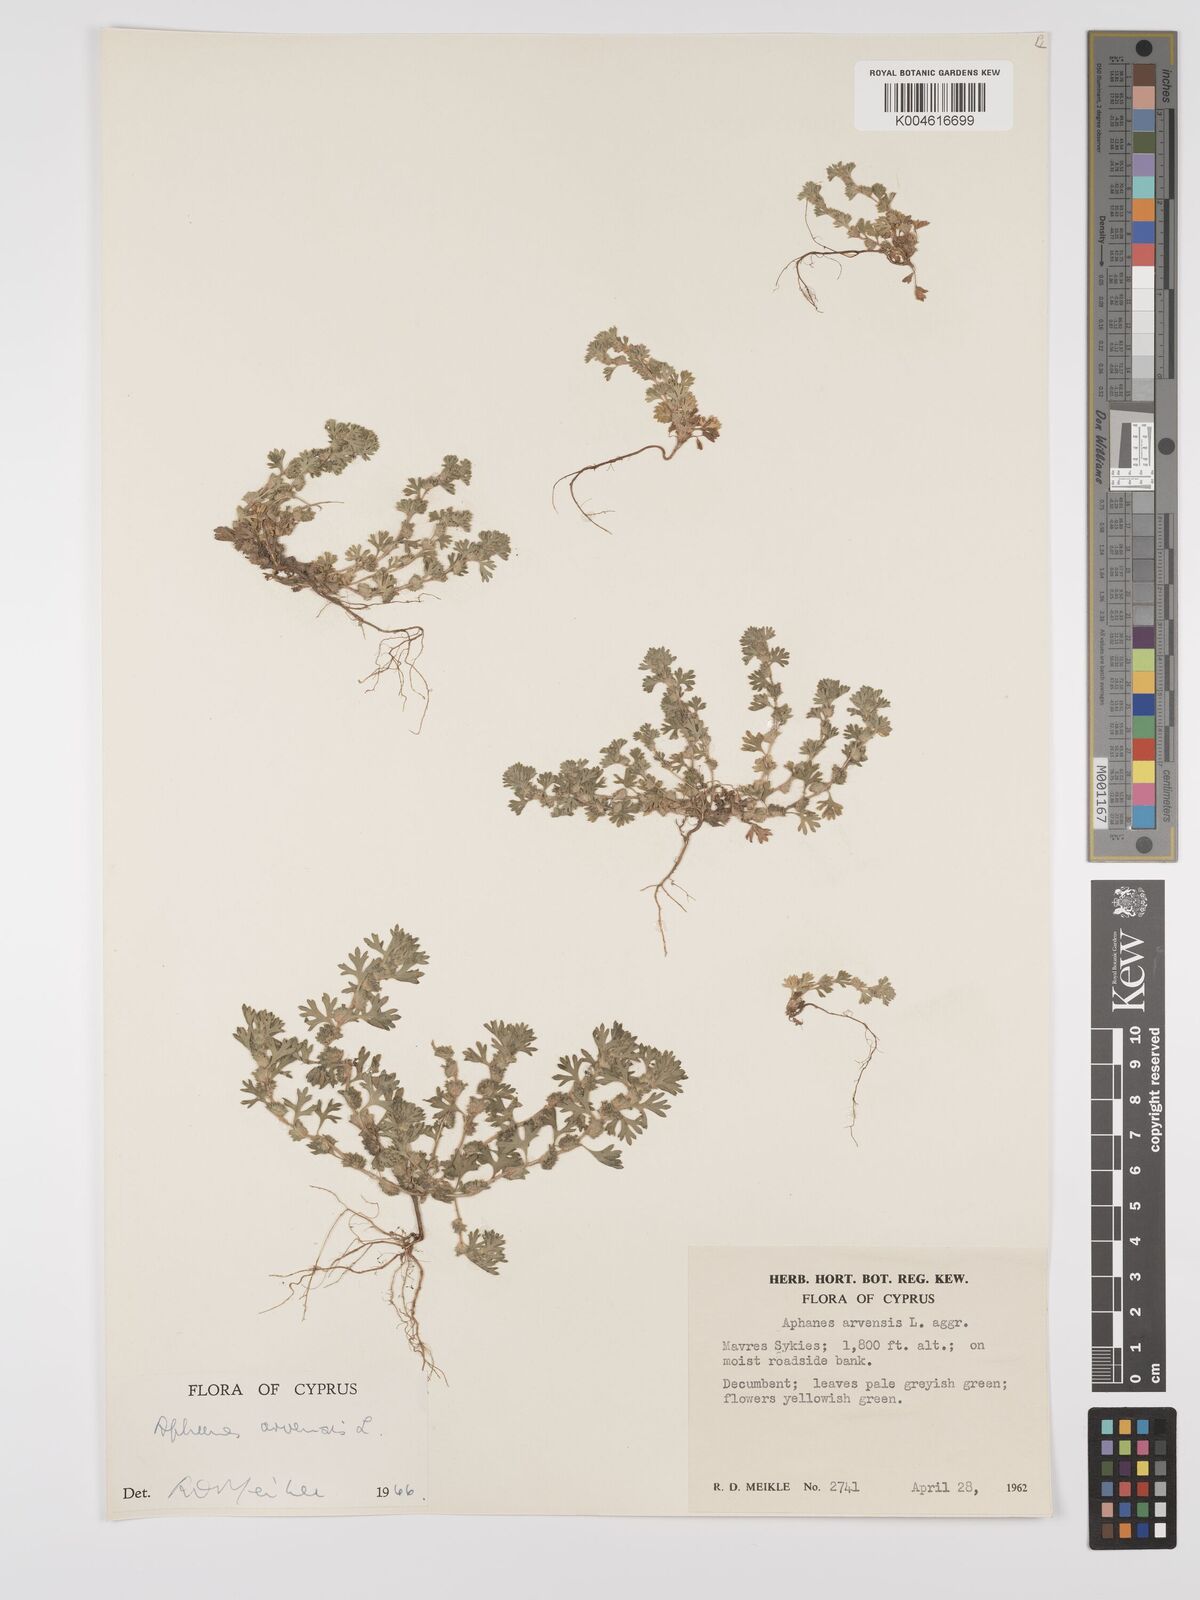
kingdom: Plantae
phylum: Tracheophyta
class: Magnoliopsida
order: Rosales
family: Rosaceae
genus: Aphanes
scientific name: Aphanes arvensis
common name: Parsley-piert
